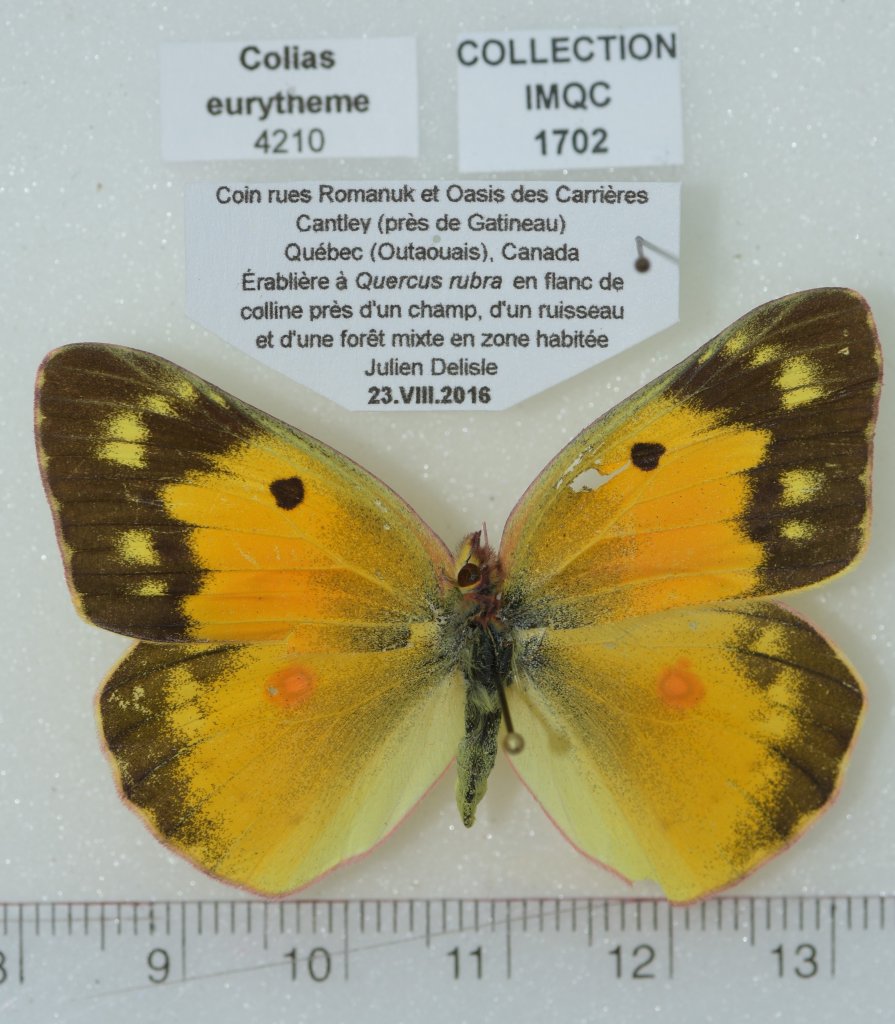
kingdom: Animalia
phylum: Arthropoda
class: Insecta
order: Lepidoptera
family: Pieridae
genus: Colias
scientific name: Colias eurytheme
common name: Orange Sulphur
